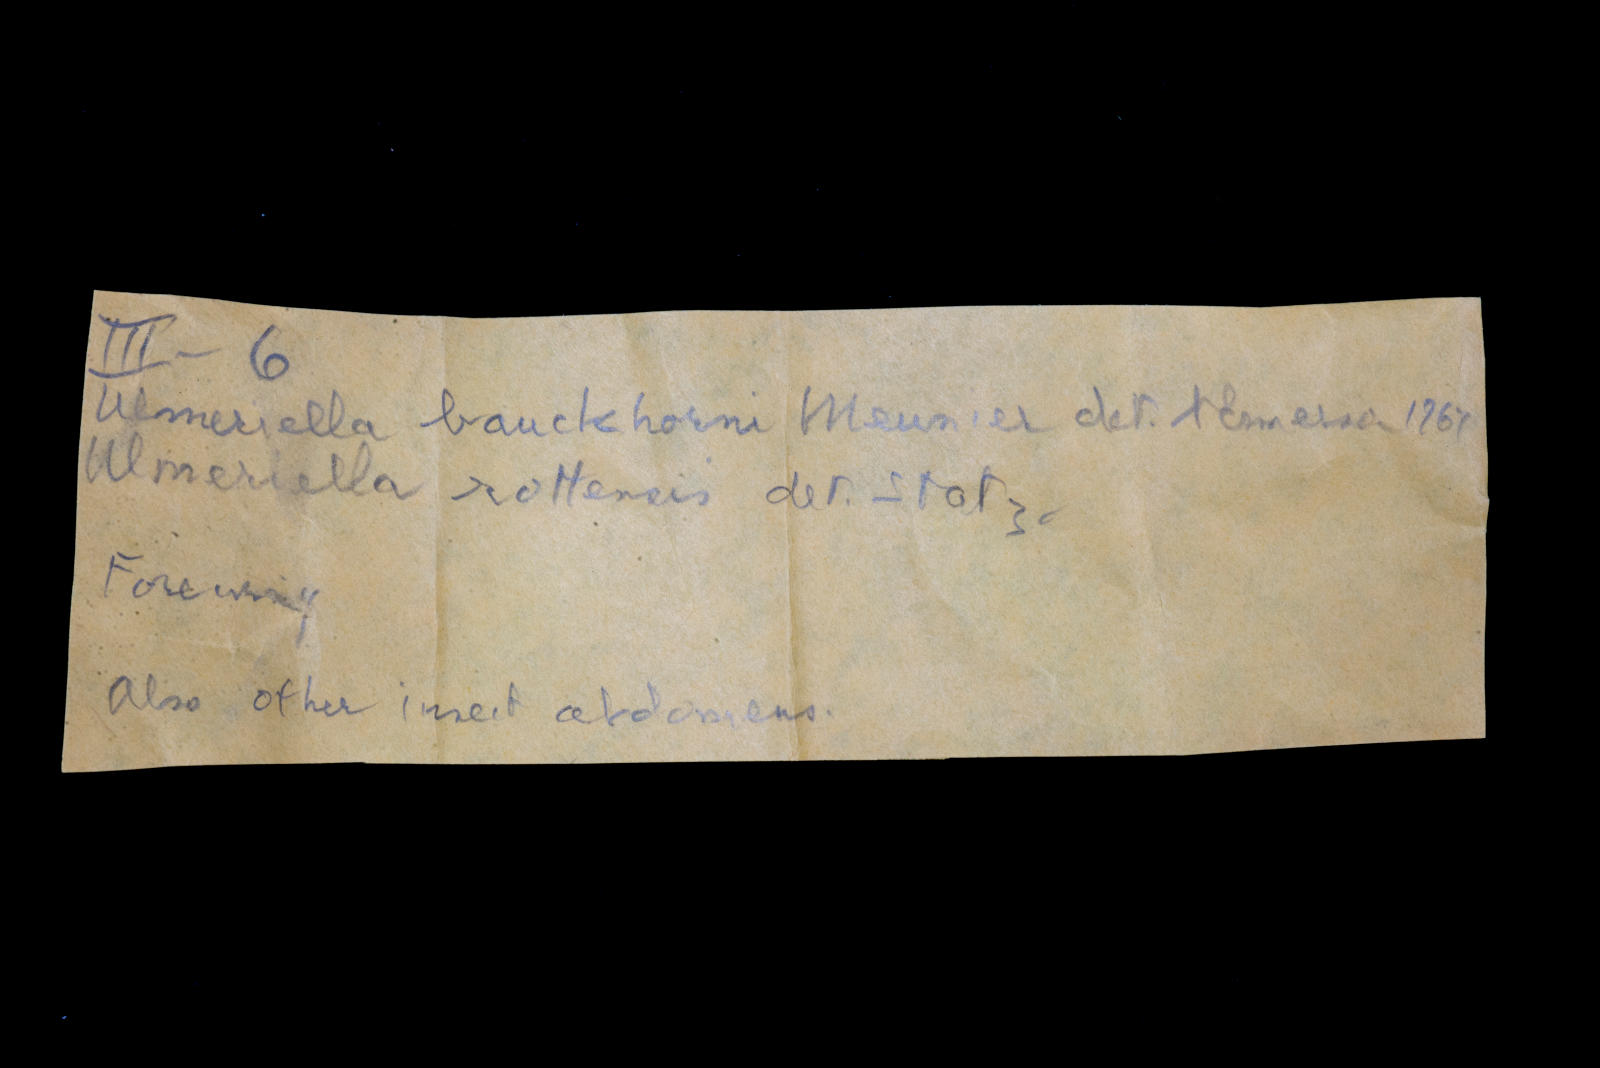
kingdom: Animalia
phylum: Arthropoda
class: Insecta
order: Blattodea
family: Hodotermitidae
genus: Ulmeriella
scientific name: Ulmeriella bauckhorni
